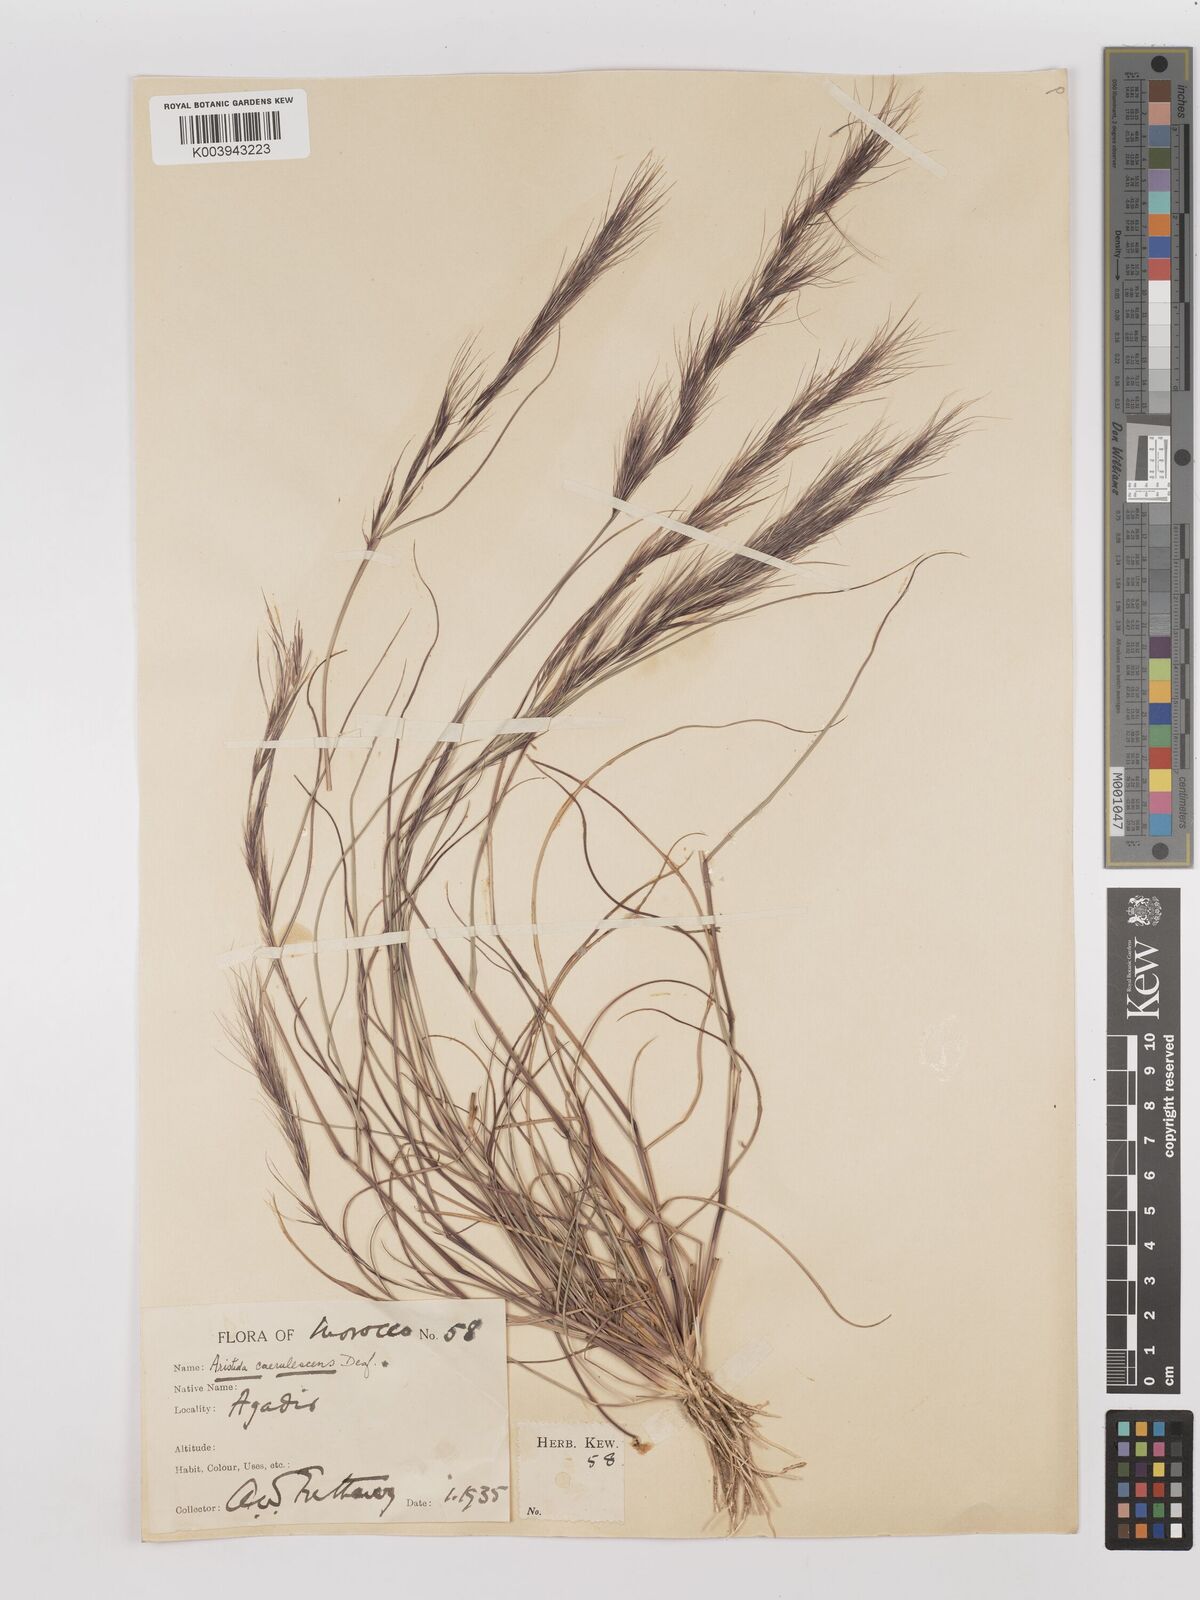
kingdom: Plantae
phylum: Tracheophyta
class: Liliopsida
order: Poales
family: Poaceae
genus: Aristida
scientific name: Aristida adscensionis
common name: Sixweeks threeawn
